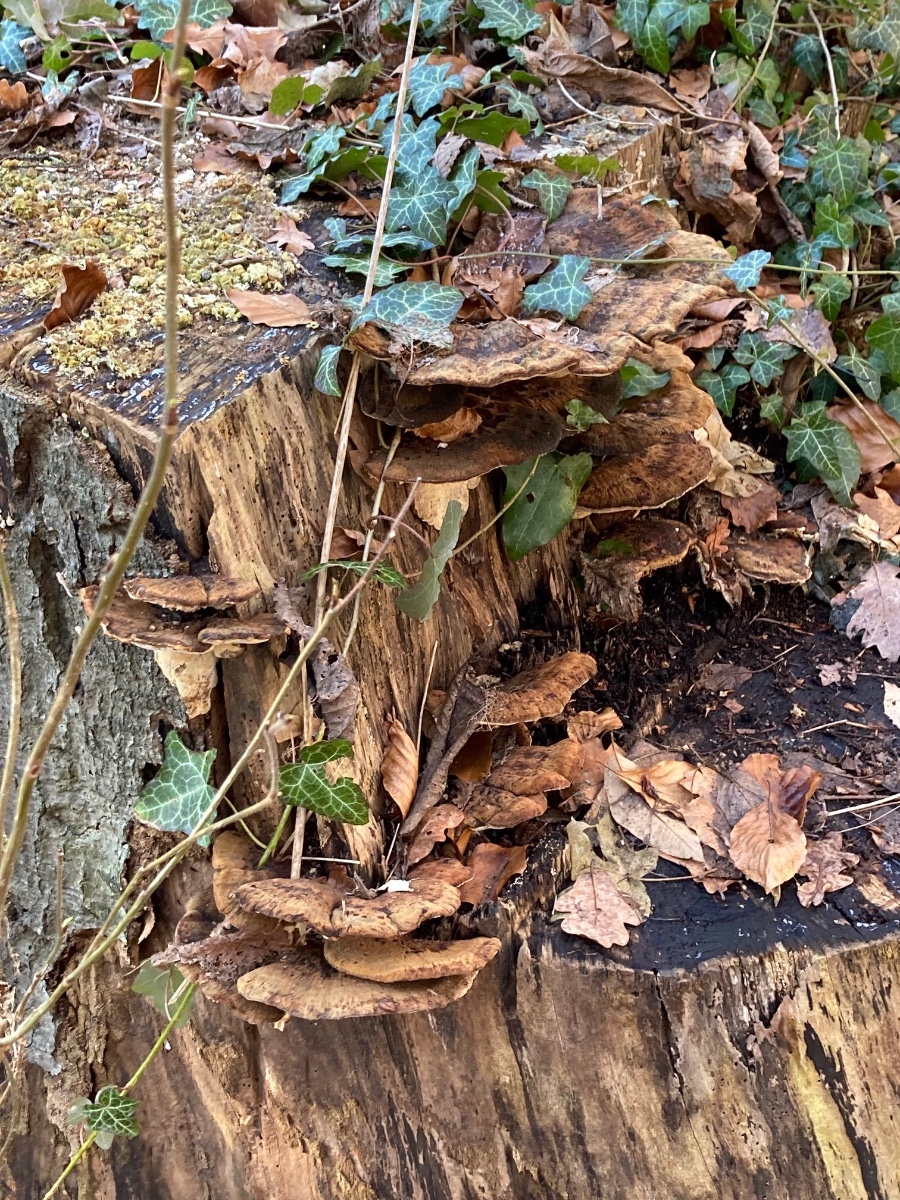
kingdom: Fungi
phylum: Basidiomycota
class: Agaricomycetes
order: Polyporales
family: Ischnodermataceae
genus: Ischnoderma
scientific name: Ischnoderma resinosum
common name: løv-tjæreporesvamp
